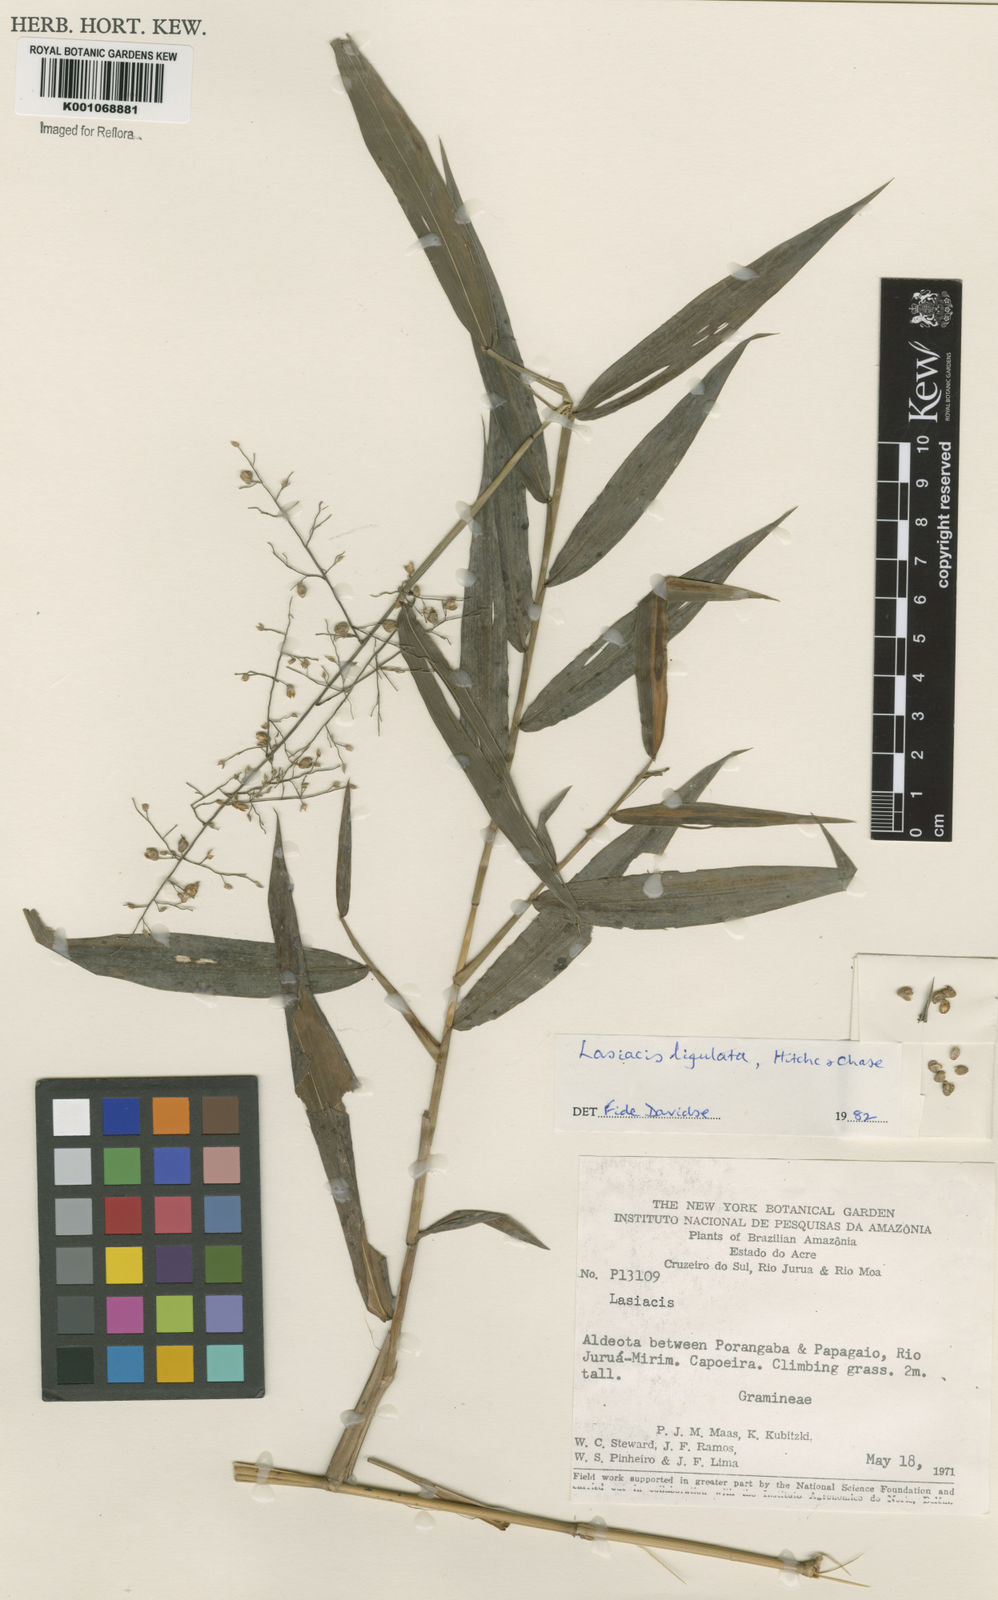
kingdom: Plantae
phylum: Tracheophyta
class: Liliopsida
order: Poales
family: Poaceae
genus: Lasiacis
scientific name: Lasiacis ligulata
